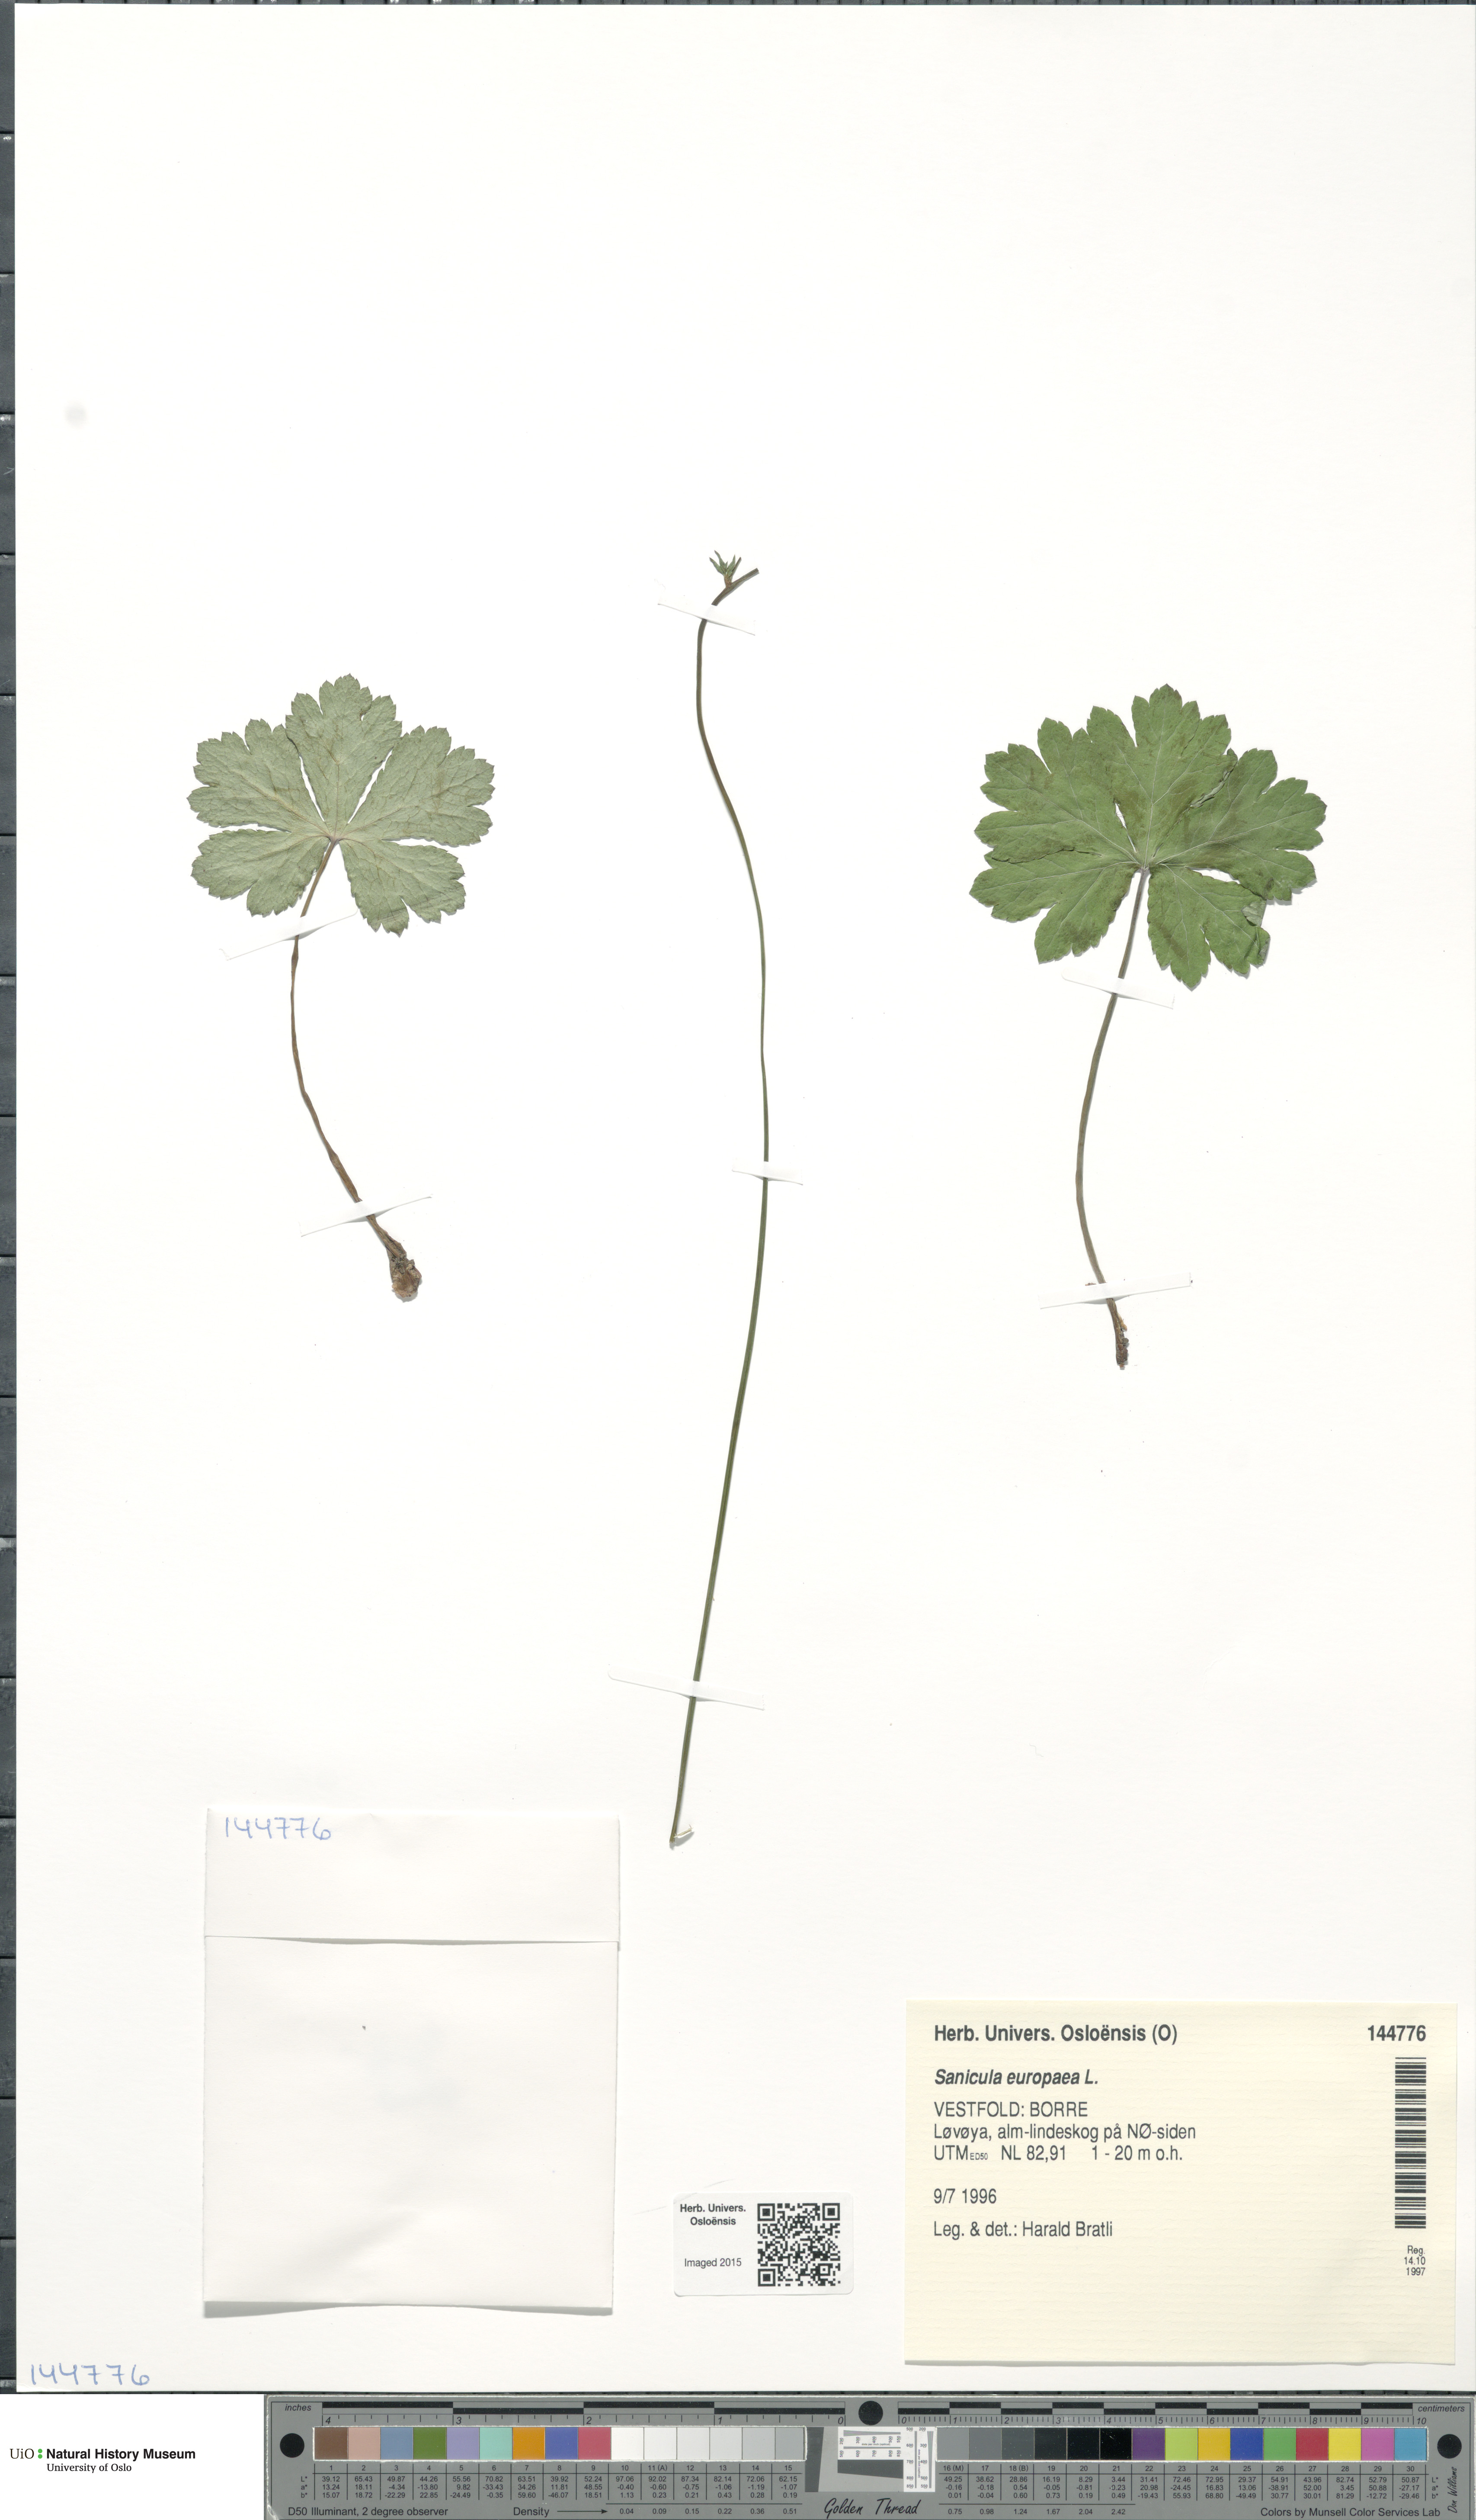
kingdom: Plantae
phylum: Tracheophyta
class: Magnoliopsida
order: Apiales
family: Apiaceae
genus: Sanicula
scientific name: Sanicula europaea
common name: Sanicle
